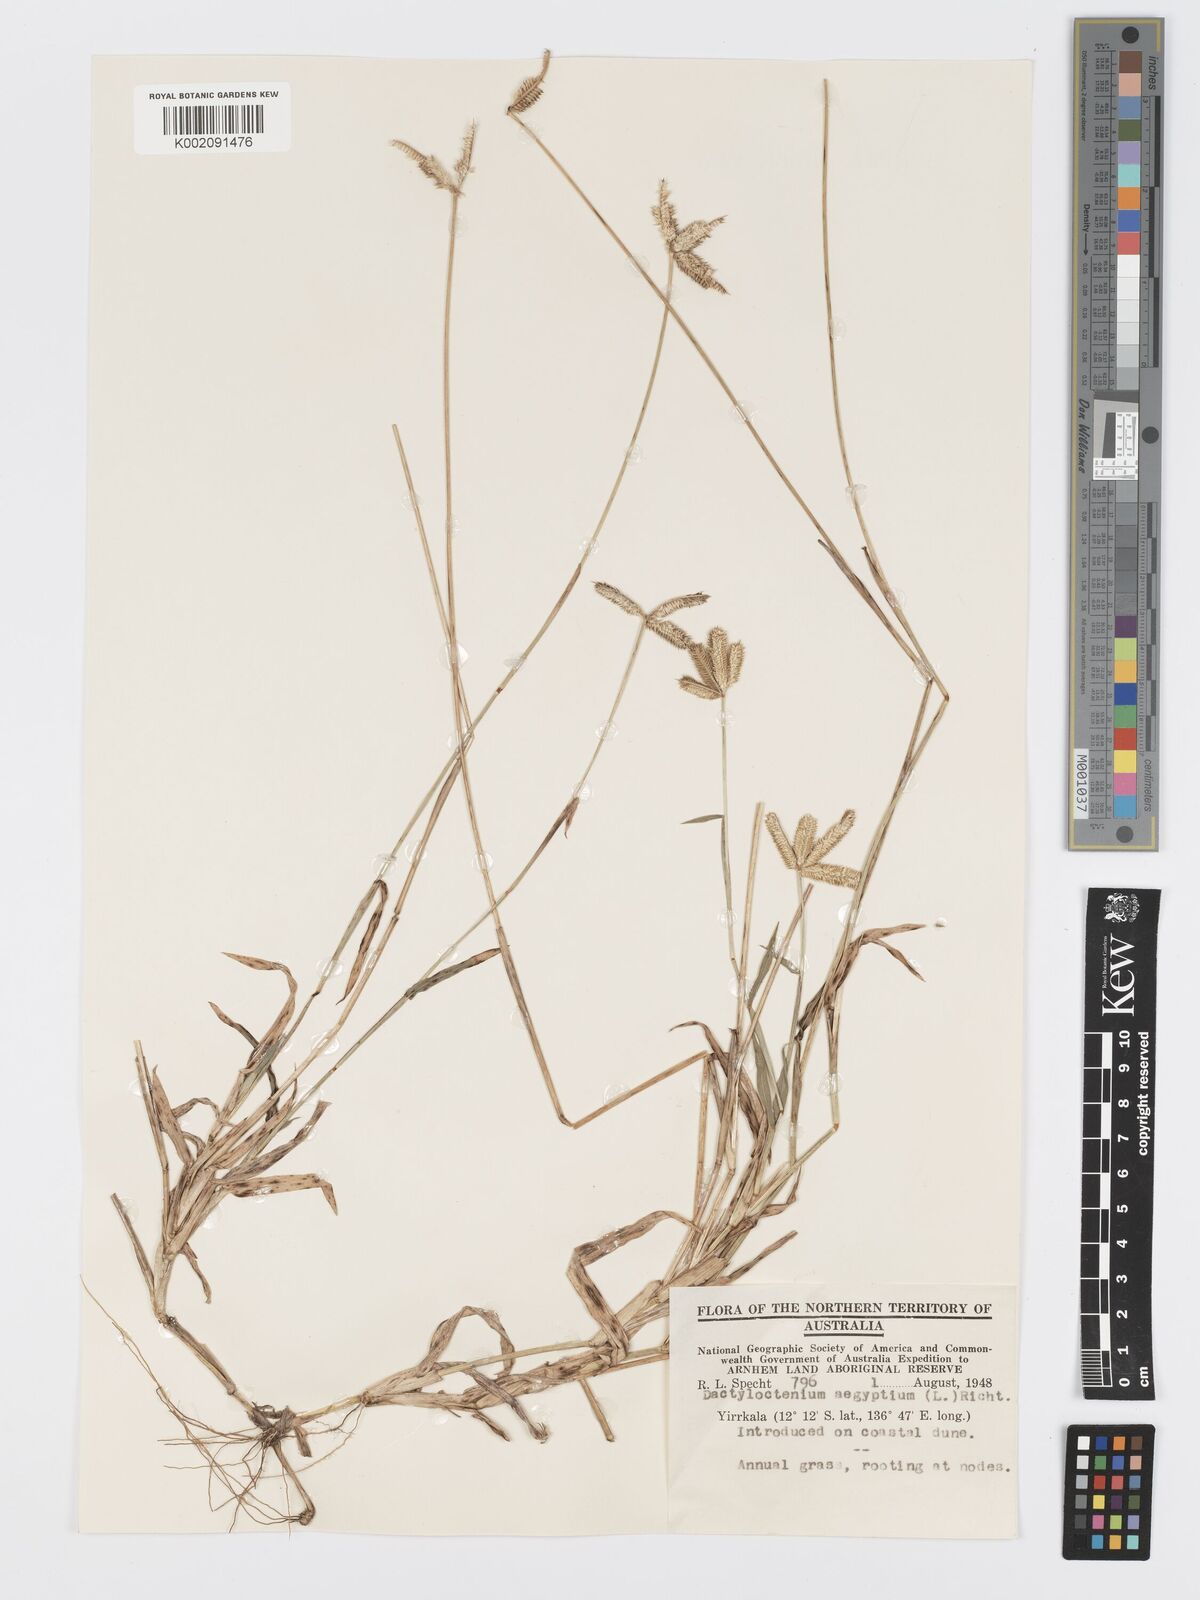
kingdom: Plantae
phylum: Tracheophyta
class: Liliopsida
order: Poales
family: Poaceae
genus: Dactyloctenium
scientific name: Dactyloctenium aegyptium
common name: Egyptian grass
